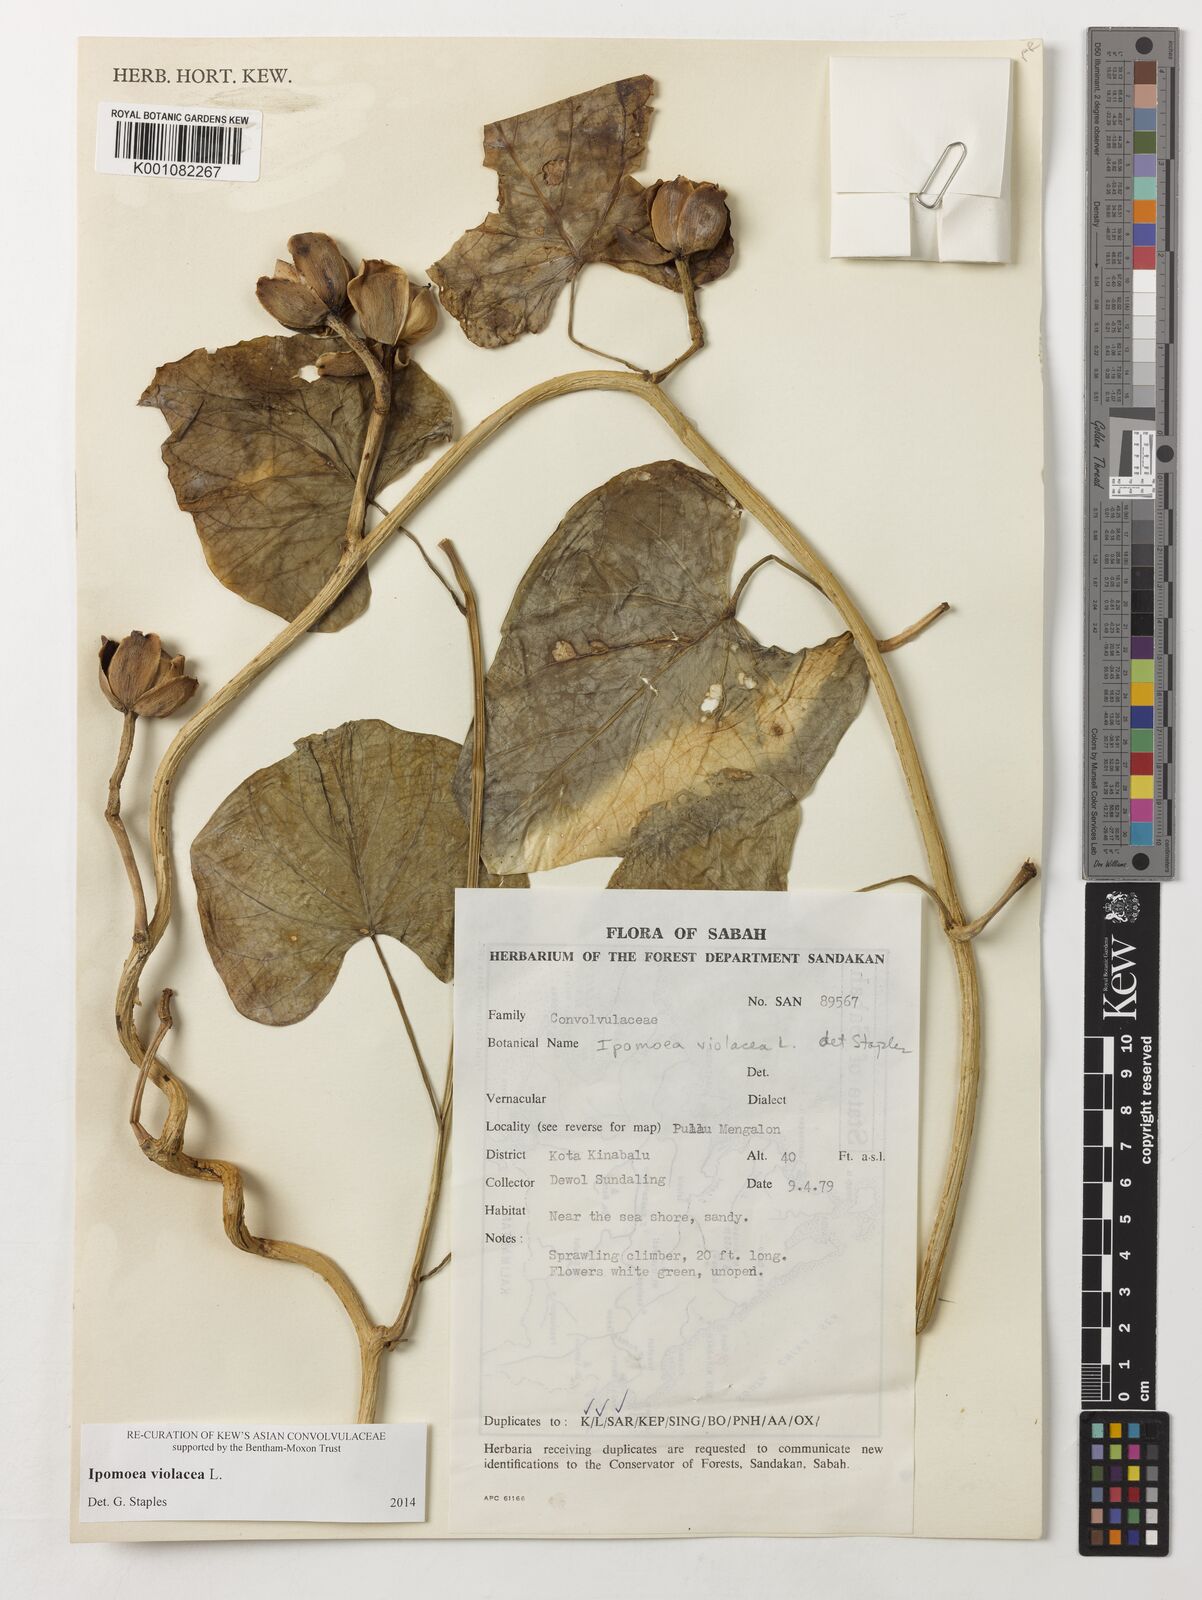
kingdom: Plantae
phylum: Tracheophyta
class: Magnoliopsida
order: Solanales
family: Convolvulaceae
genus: Ipomoea
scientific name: Ipomoea violacea
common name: Beach moonflower
